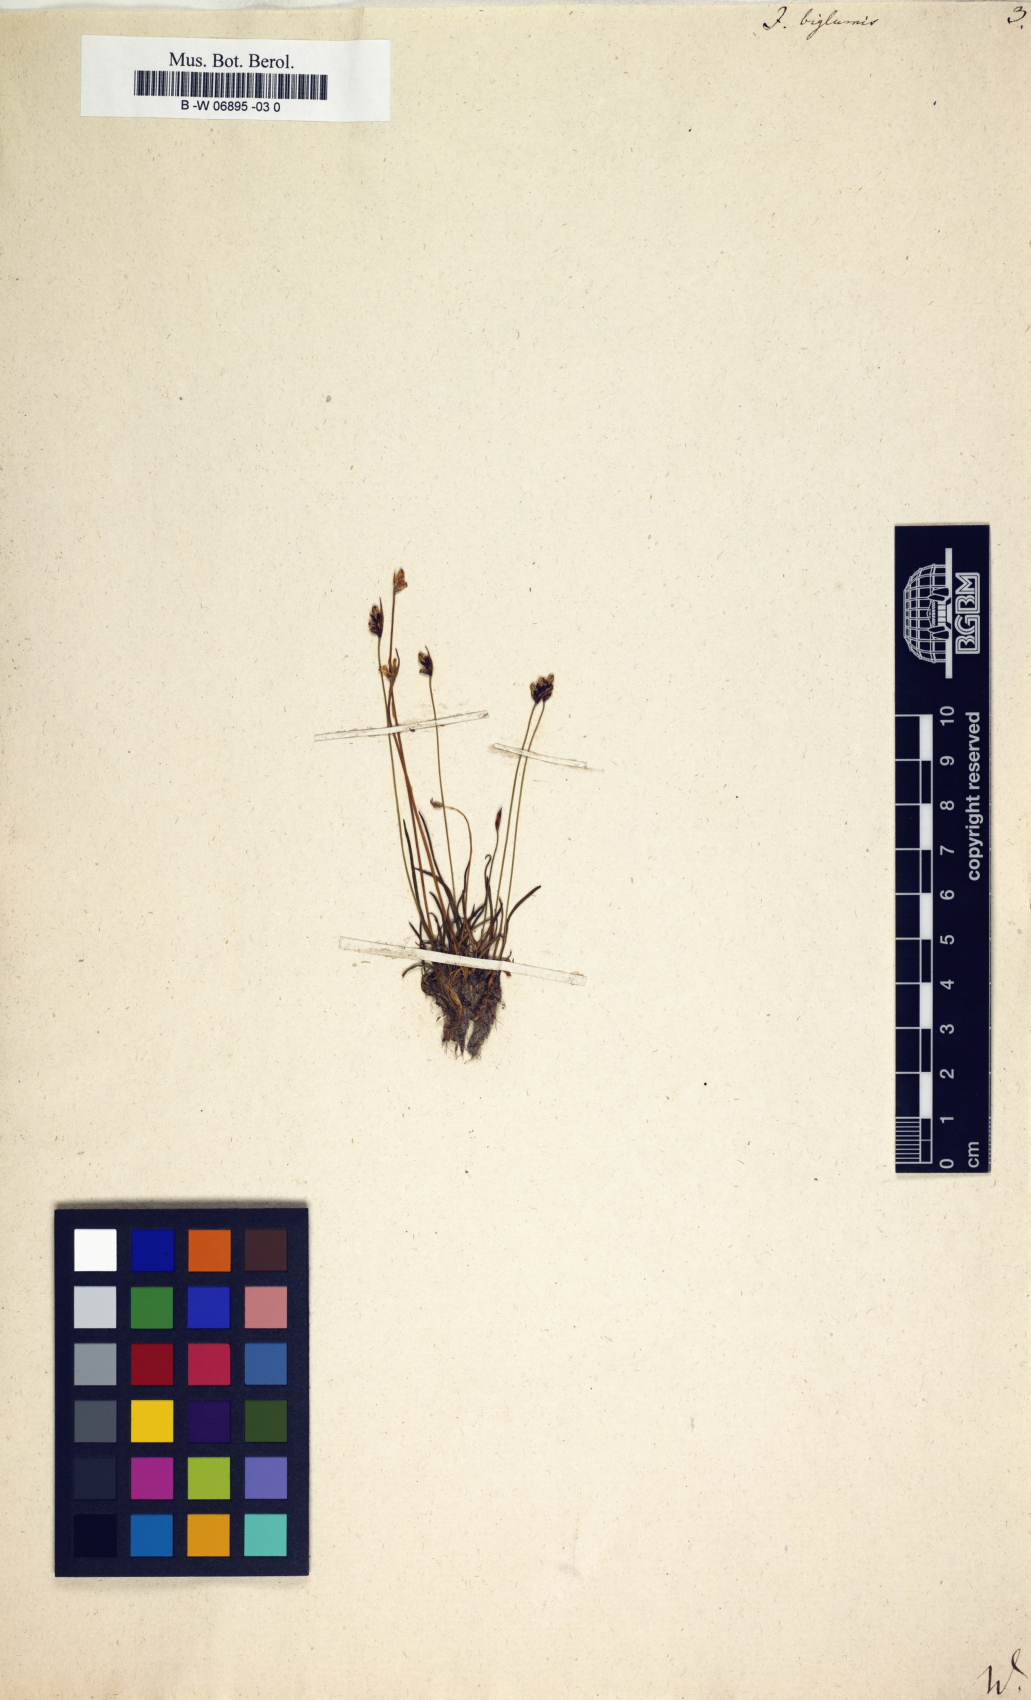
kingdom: Plantae
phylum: Tracheophyta
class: Liliopsida
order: Poales
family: Juncaceae
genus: Juncus
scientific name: Juncus biglumis
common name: Two-flowered rush
